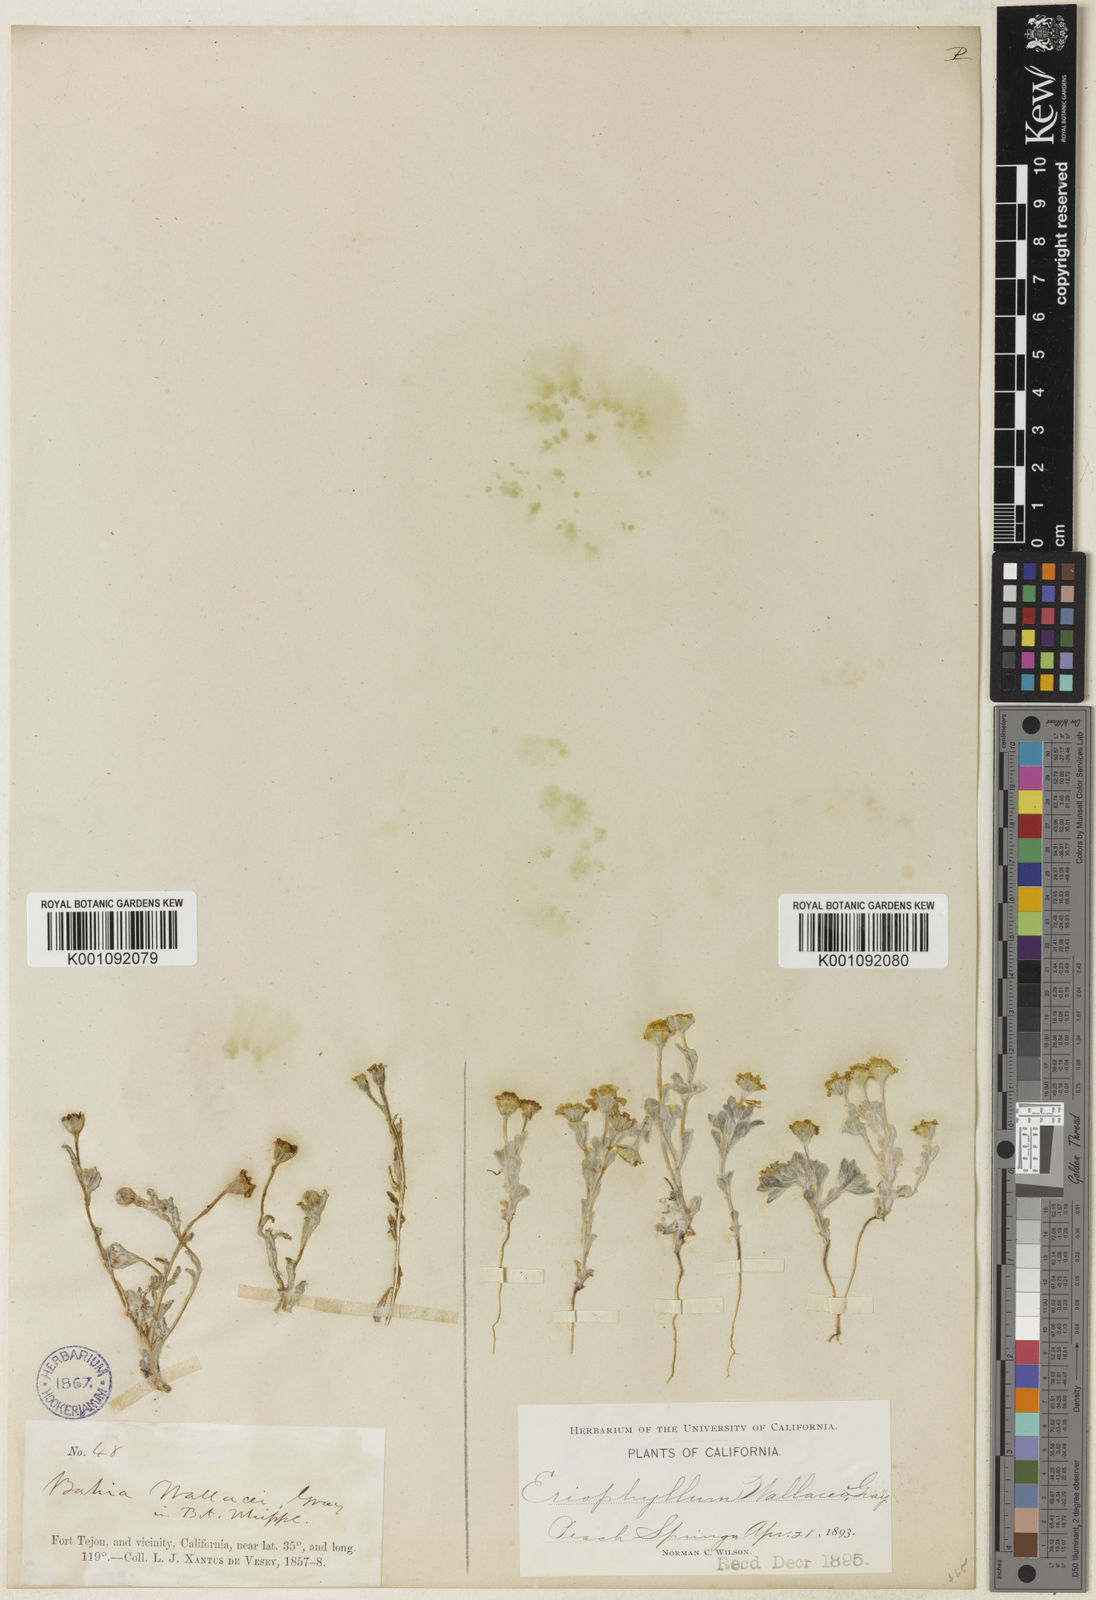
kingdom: Plantae
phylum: Tracheophyta
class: Magnoliopsida
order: Asterales
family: Asteraceae
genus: Eriophyllum
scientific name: Eriophyllum wallacei
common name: Wallace's woolly daisy
